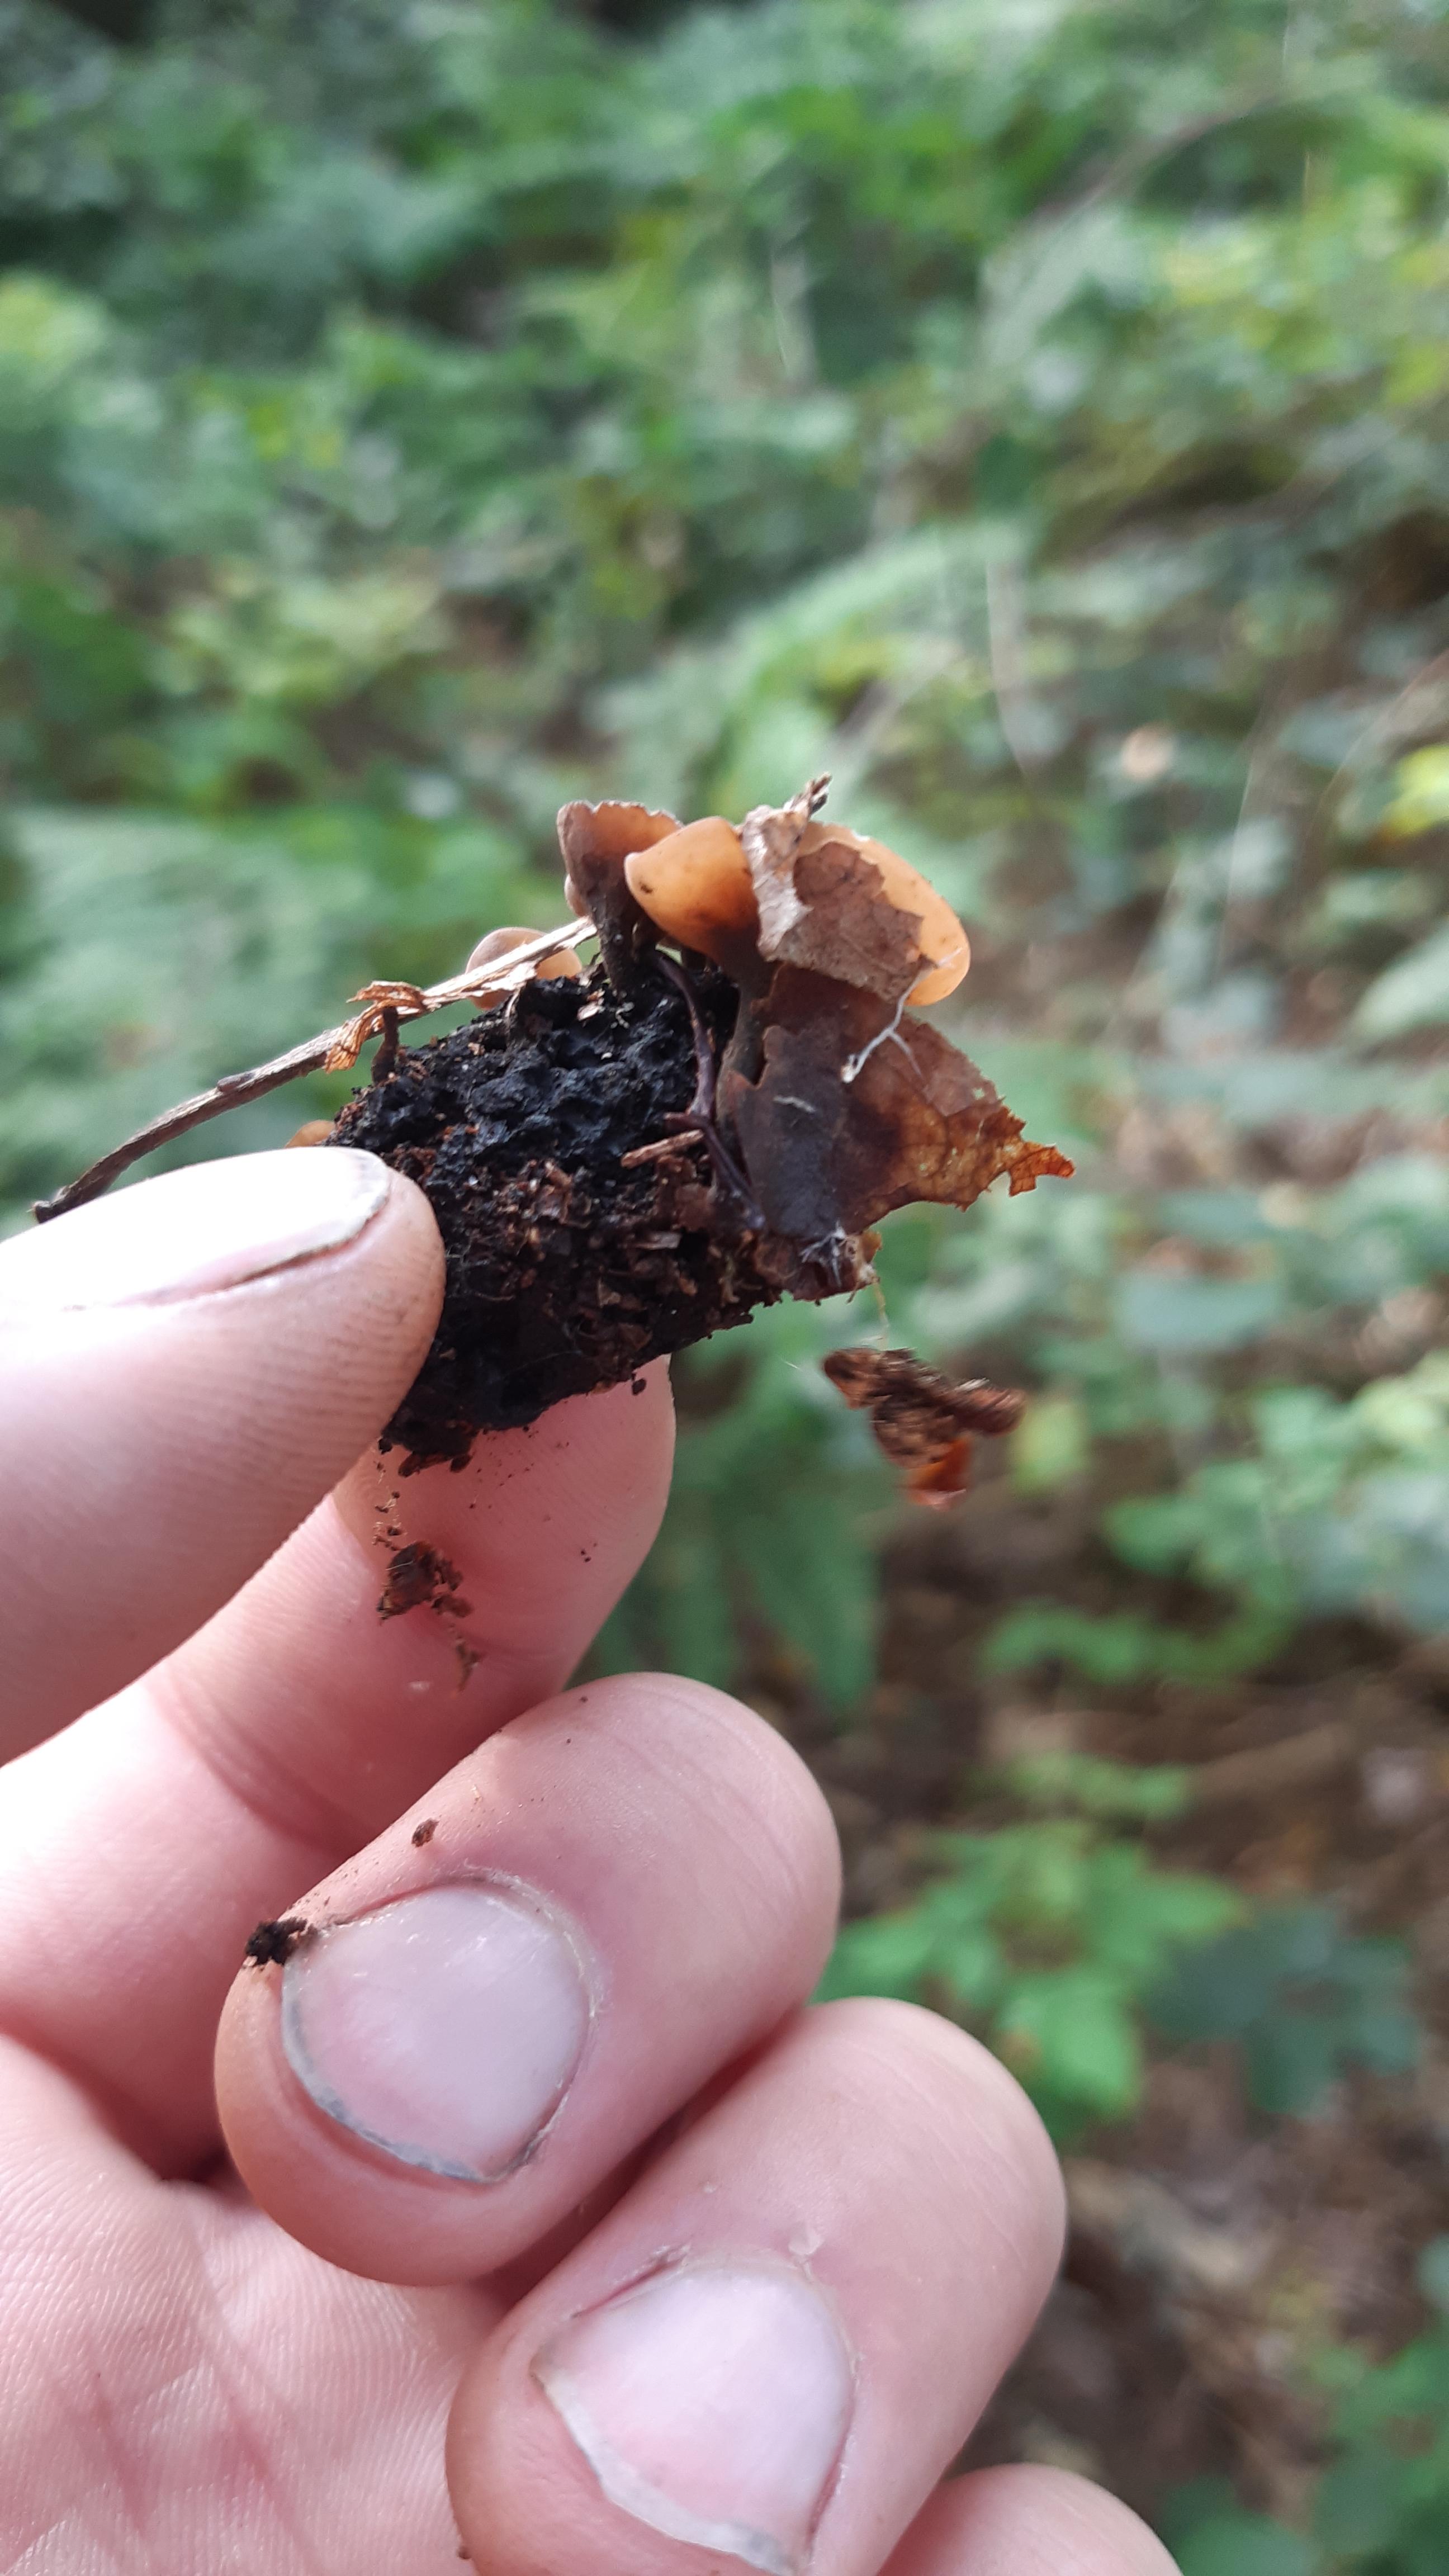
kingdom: Fungi
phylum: Ascomycota
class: Leotiomycetes
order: Helotiales
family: Sclerotiniaceae
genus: Ciboria
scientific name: Ciboria batschiana
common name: agern-knoldskive
